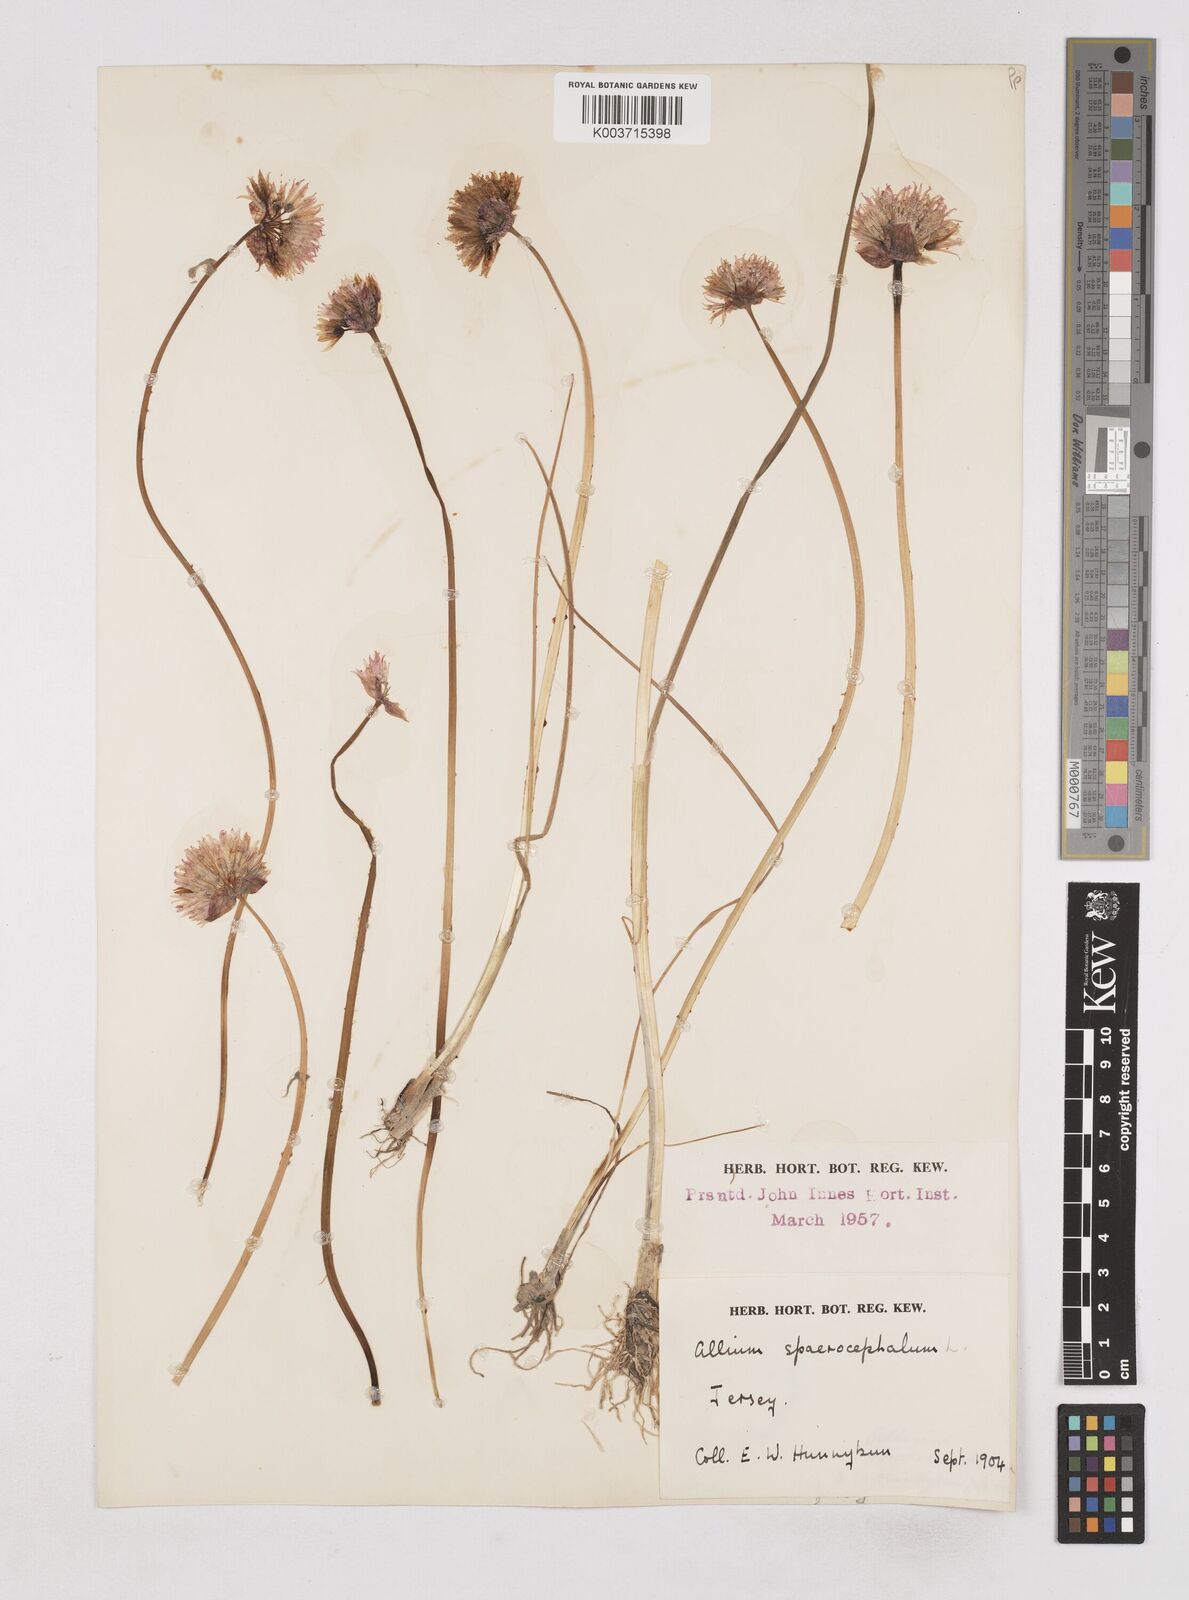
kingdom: Plantae
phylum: Tracheophyta
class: Liliopsida
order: Asparagales
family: Amaryllidaceae
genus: Allium
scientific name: Allium schoenoprasum
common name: Chives
